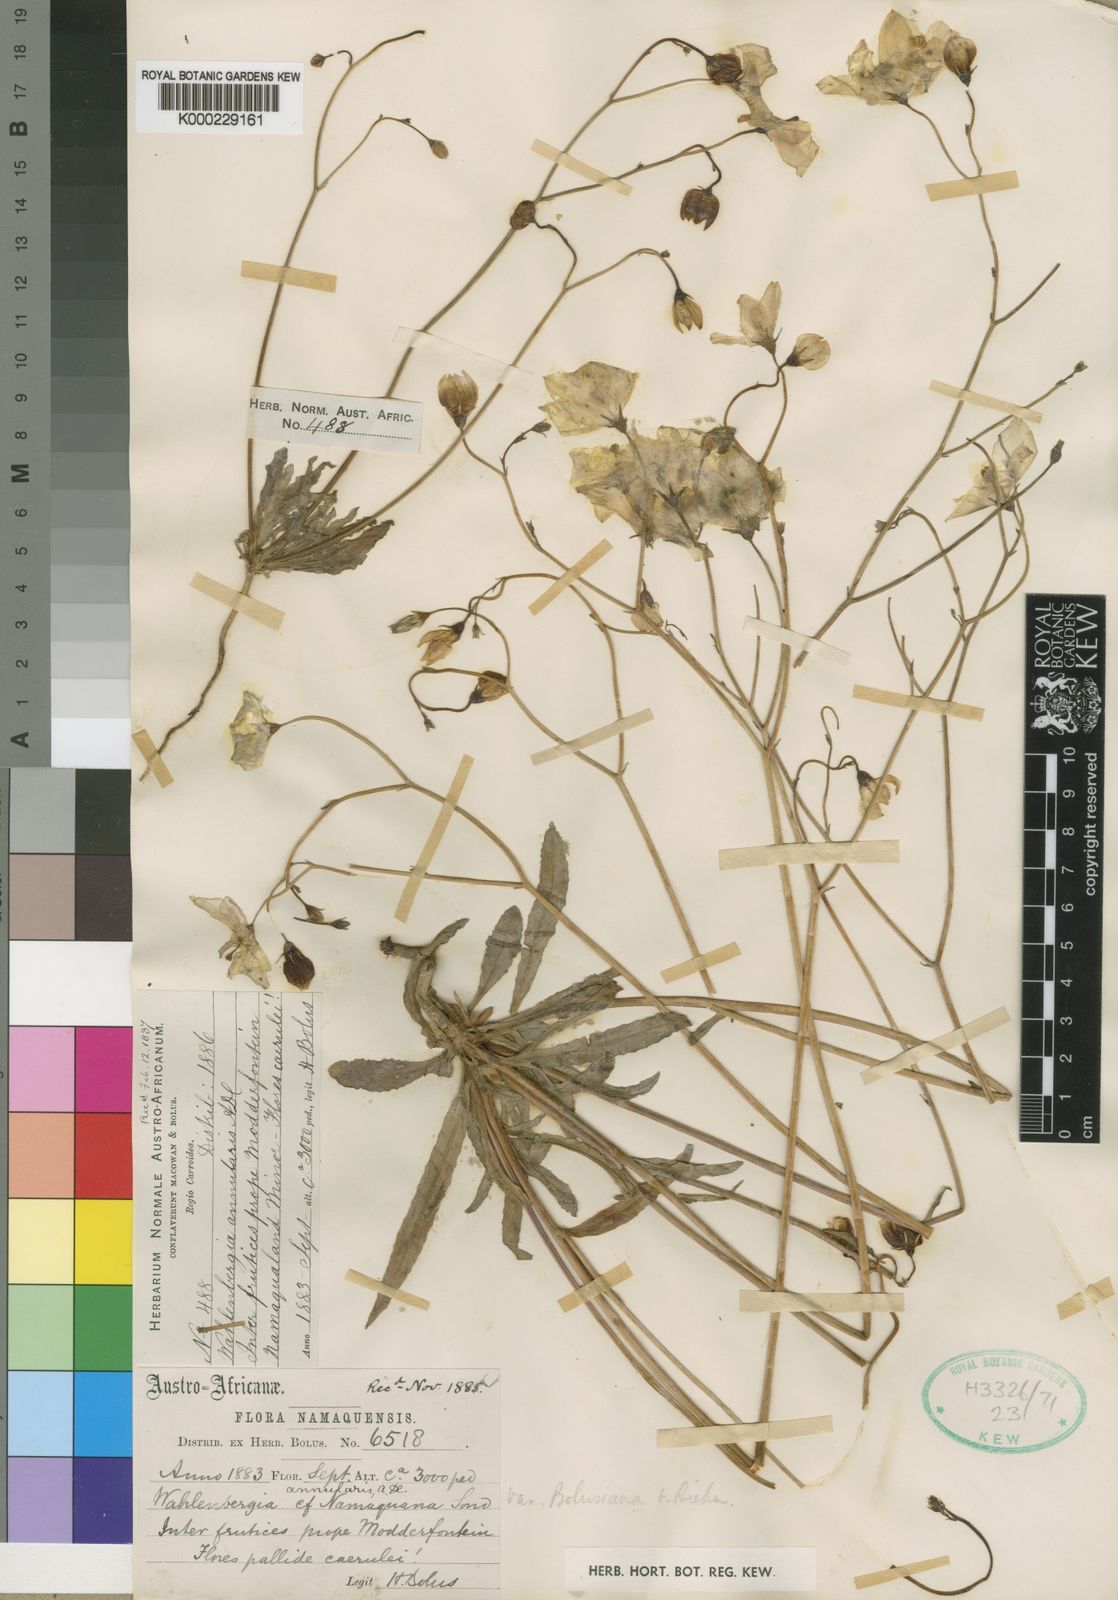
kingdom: Plantae
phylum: Tracheophyta
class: Magnoliopsida
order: Asterales
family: Campanulaceae
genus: Wahlenbergia
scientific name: Wahlenbergia annularis
